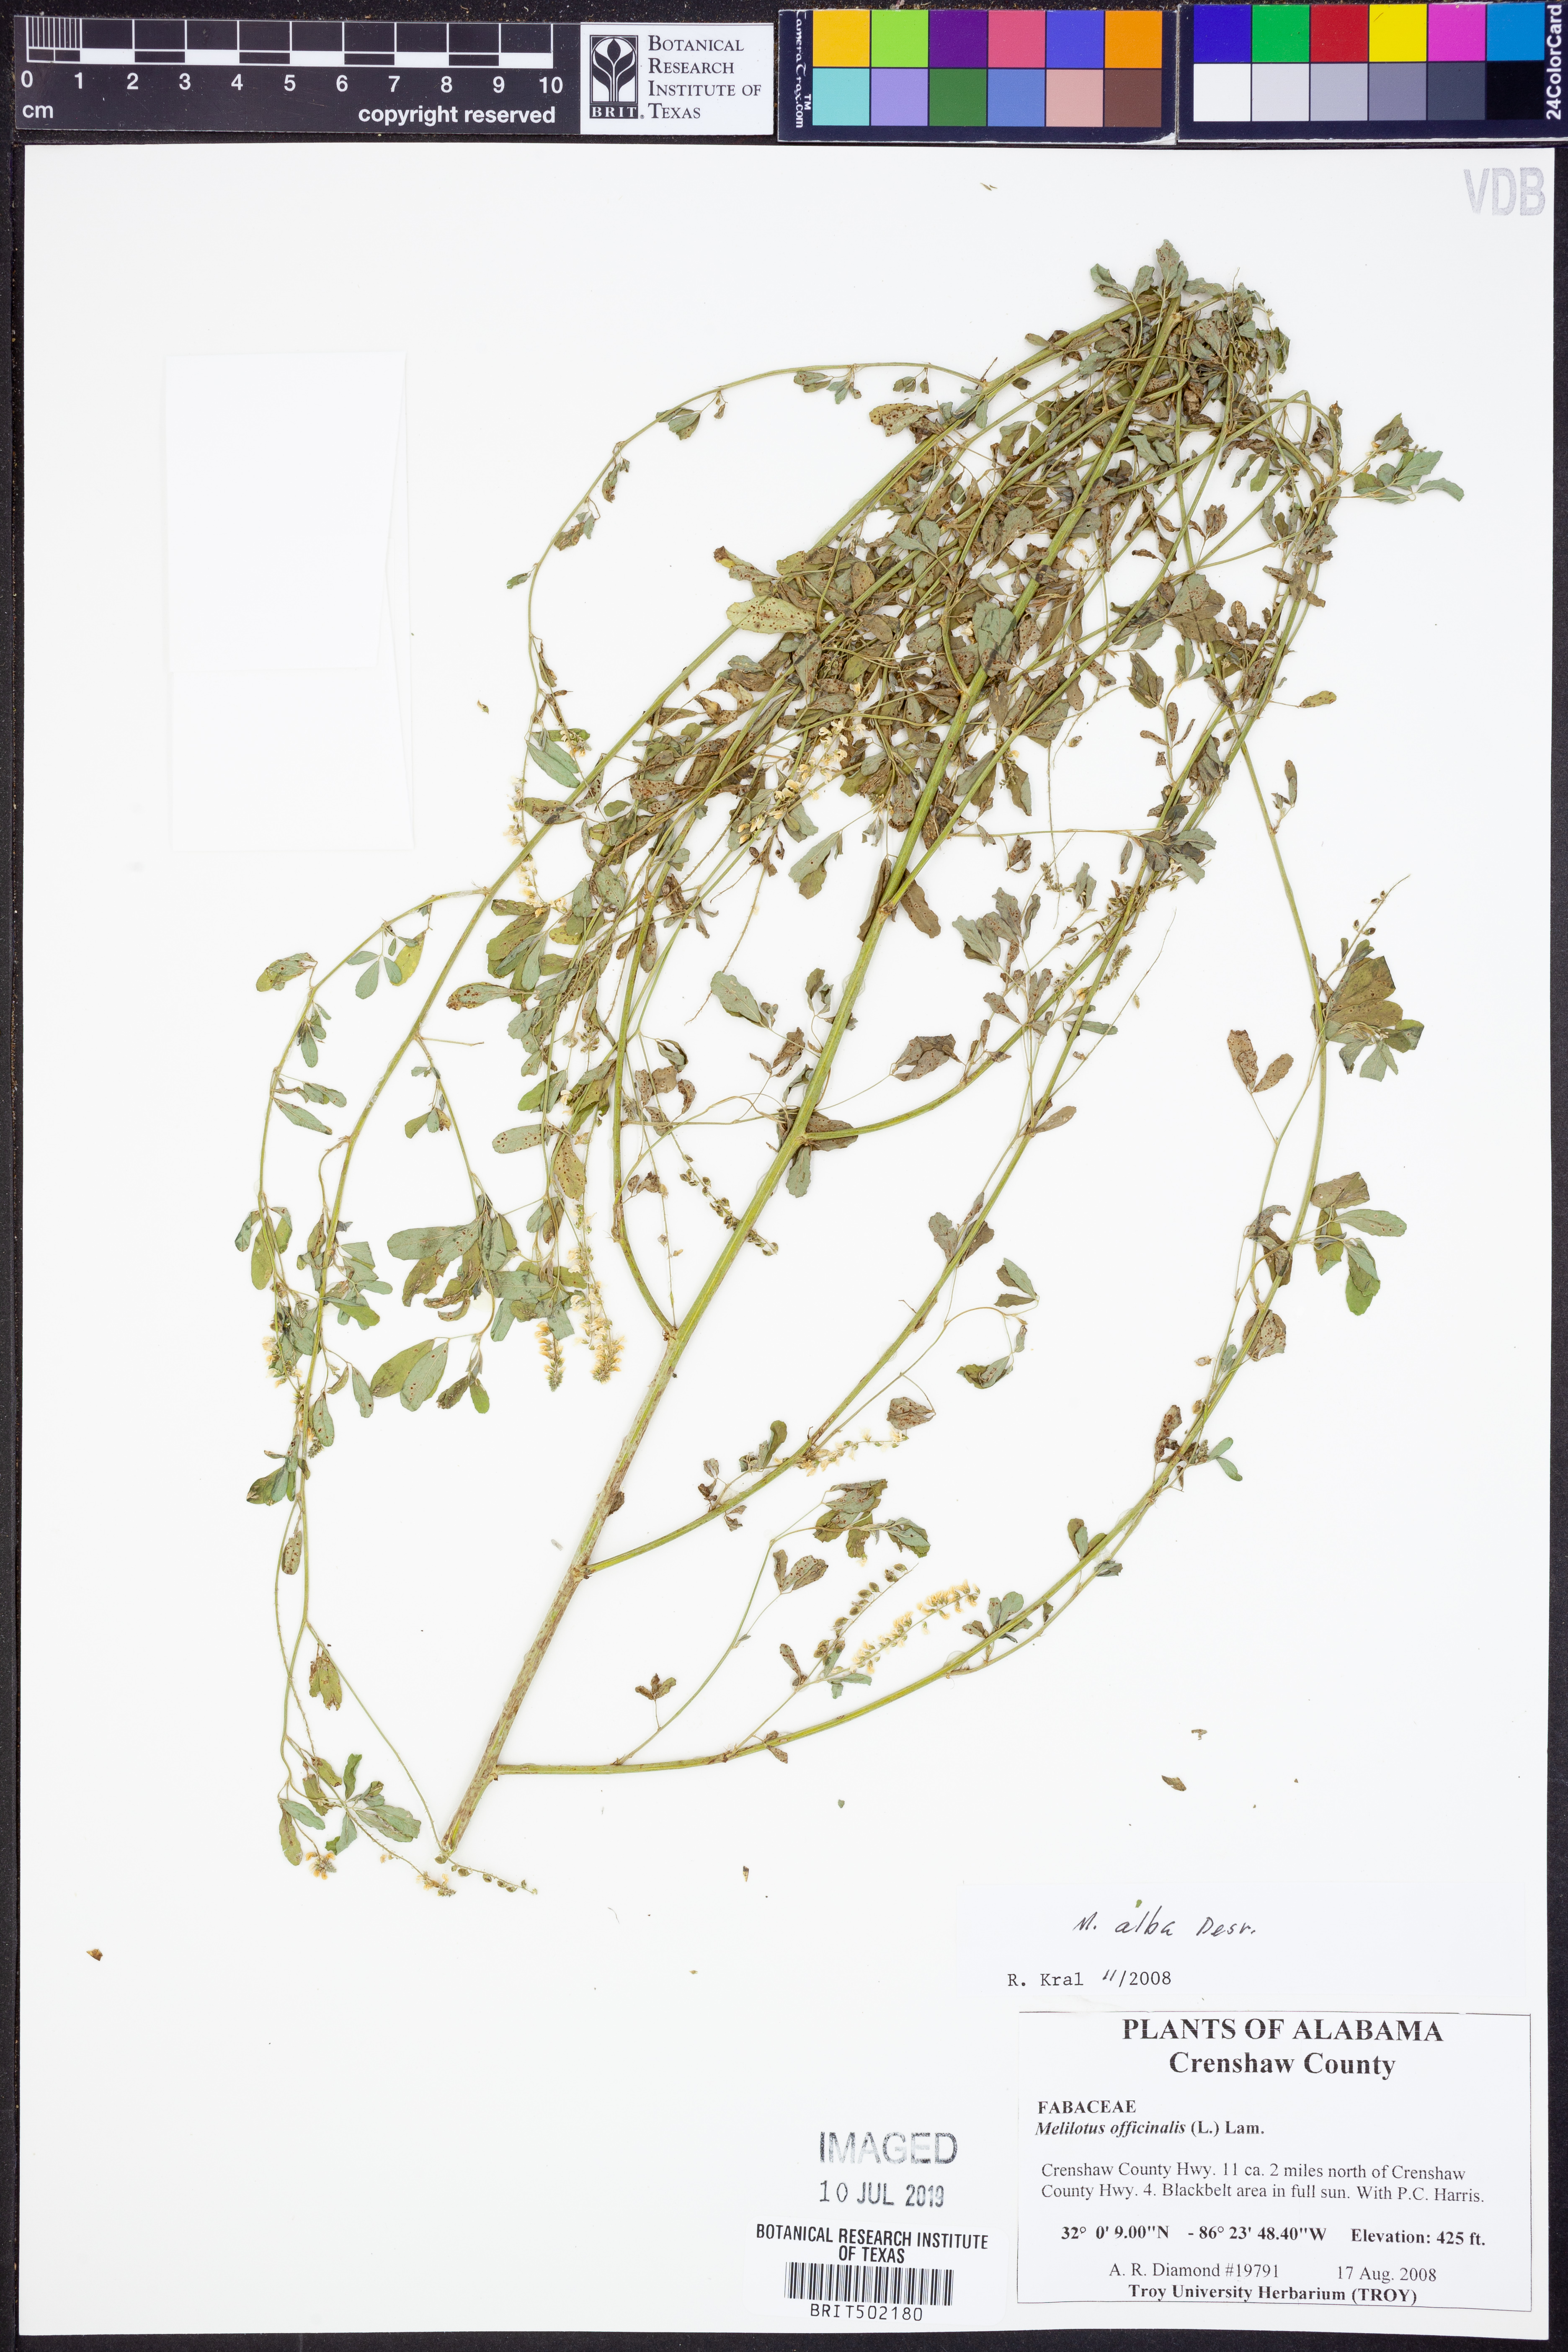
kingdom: Plantae
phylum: Tracheophyta
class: Magnoliopsida
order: Fabales
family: Fabaceae
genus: Melilotus
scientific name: Melilotus albus
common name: White melilot
